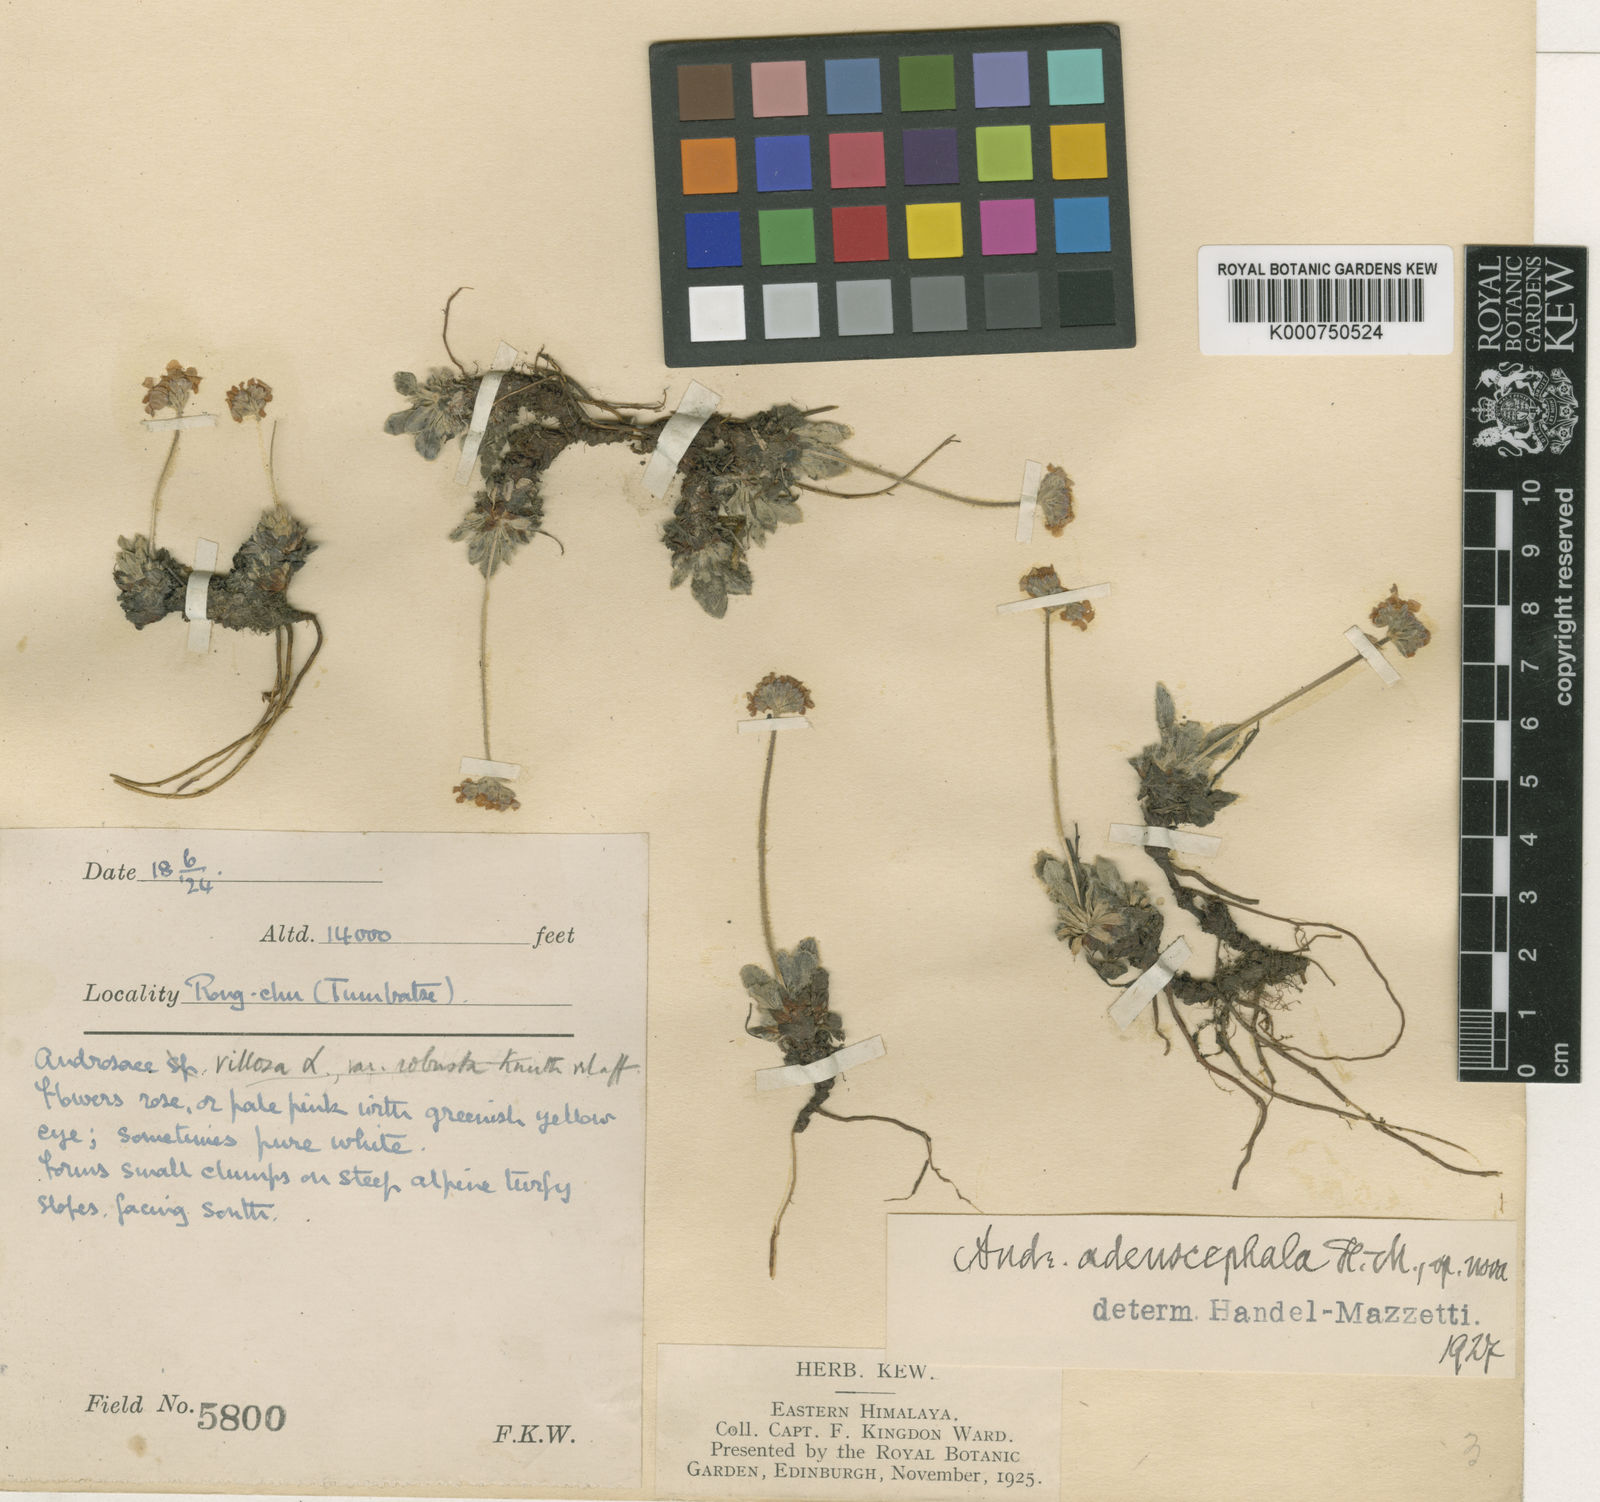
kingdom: Plantae
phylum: Tracheophyta
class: Magnoliopsida
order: Ericales
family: Primulaceae
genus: Androsace
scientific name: Androsace adenocephala
